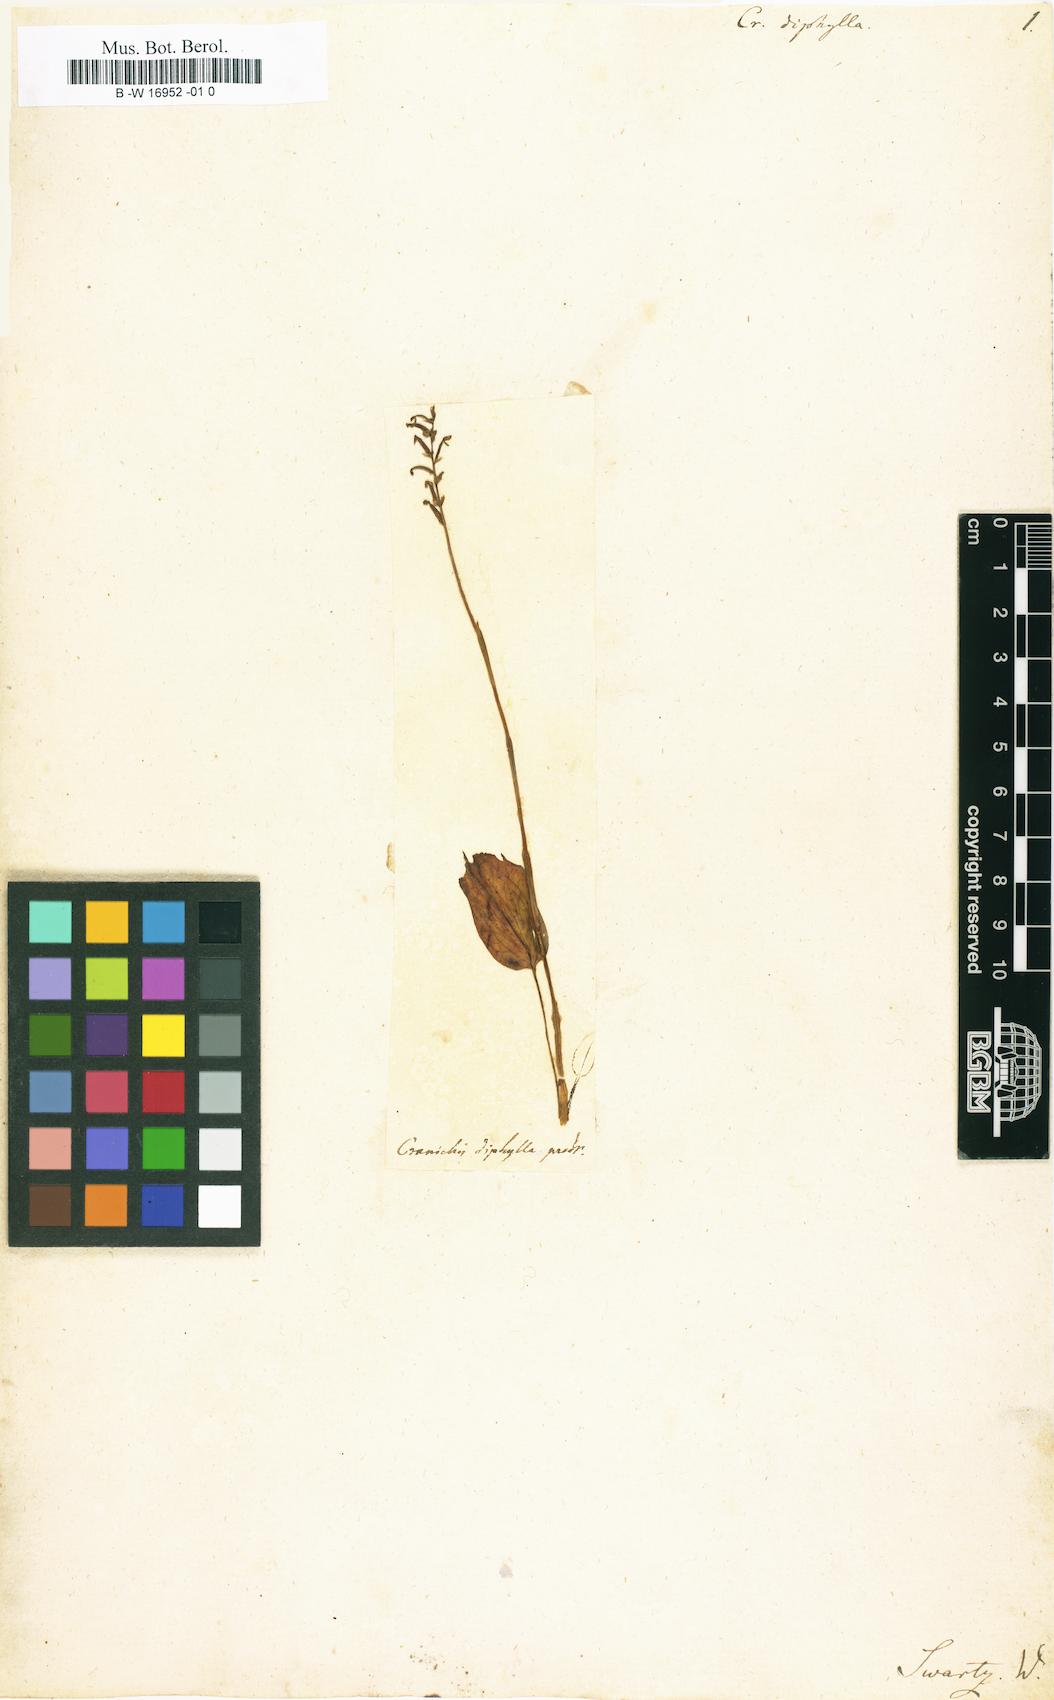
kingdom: Plantae
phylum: Tracheophyta
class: Liliopsida
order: Asparagales
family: Orchidaceae
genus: Cranichis
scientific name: Cranichis diphylla
